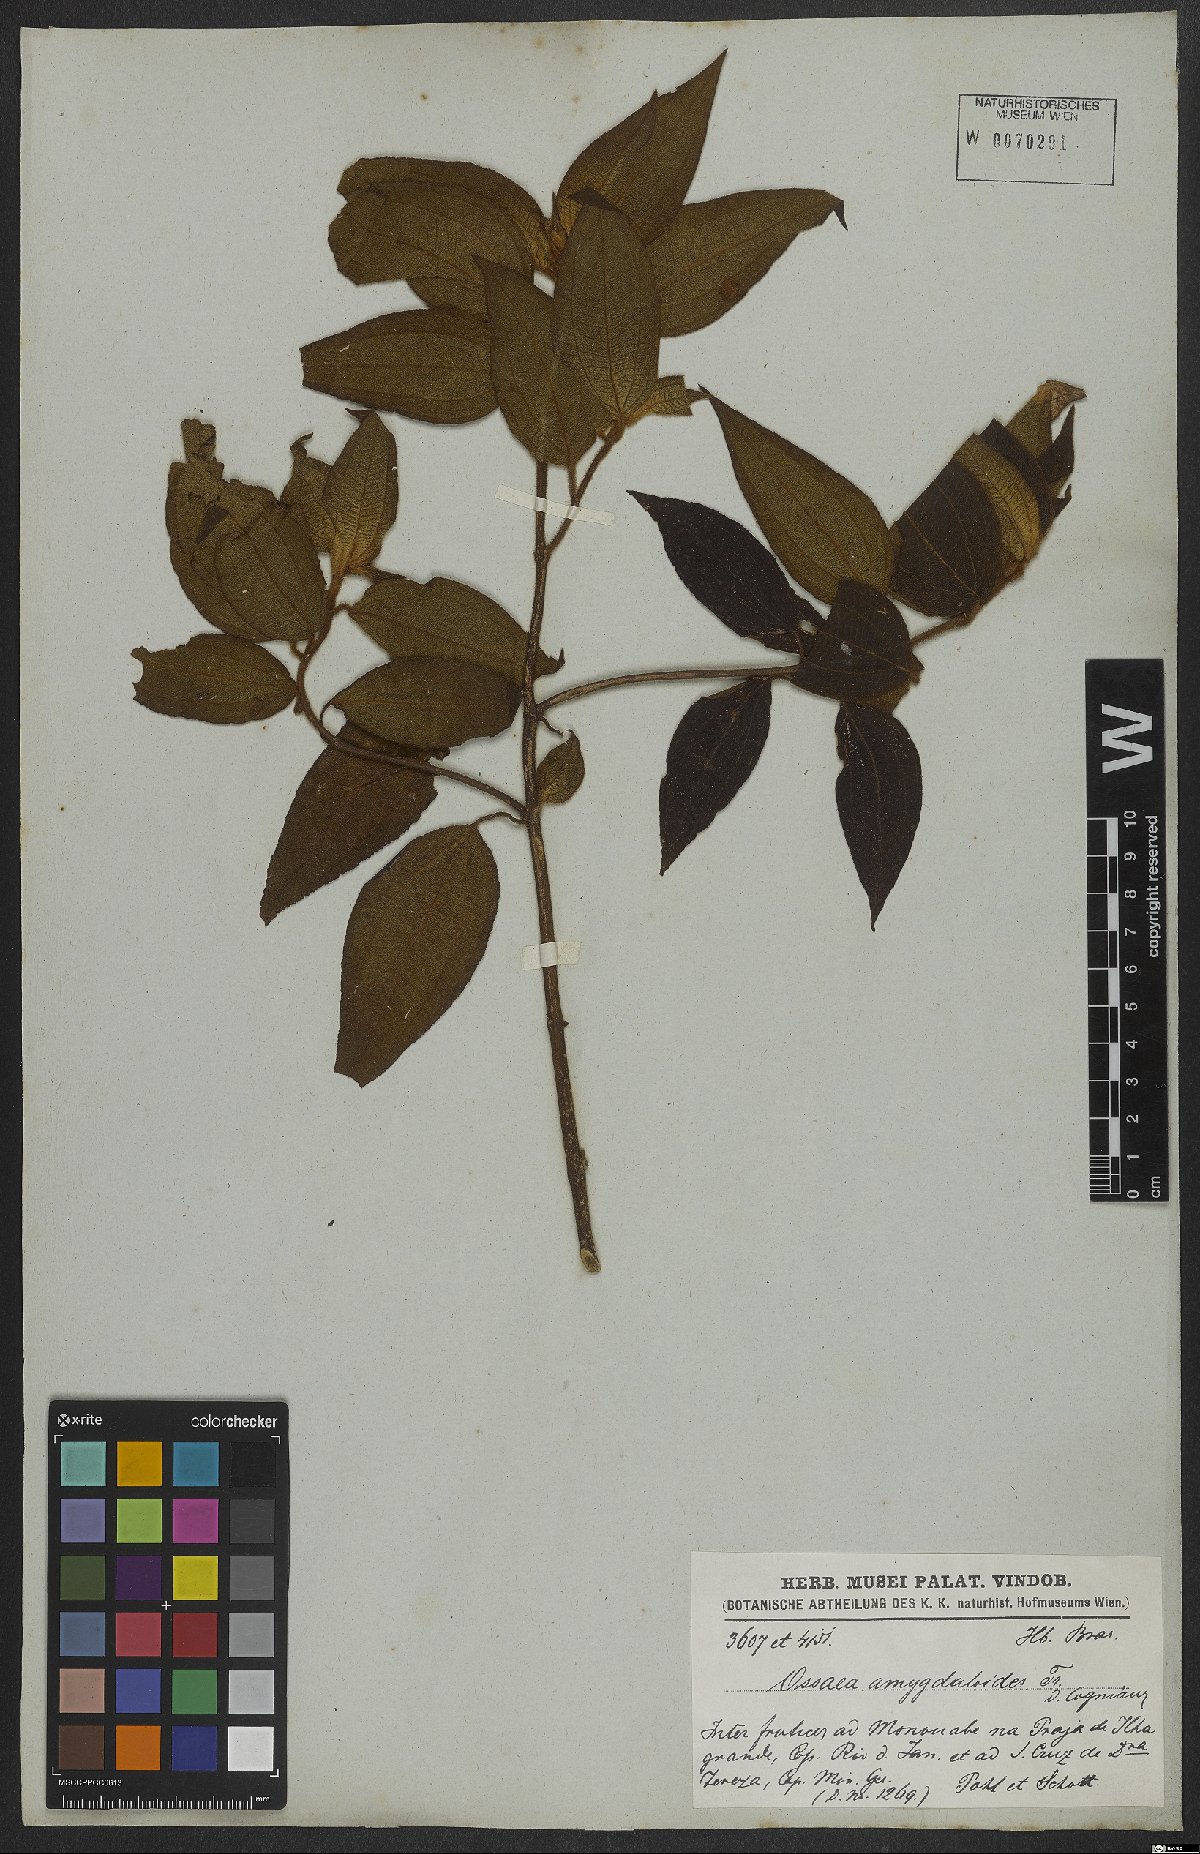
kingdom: Plantae
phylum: Tracheophyta
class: Magnoliopsida
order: Myrtales
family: Melastomataceae
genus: Miconia
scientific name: Miconia amygdaloides
